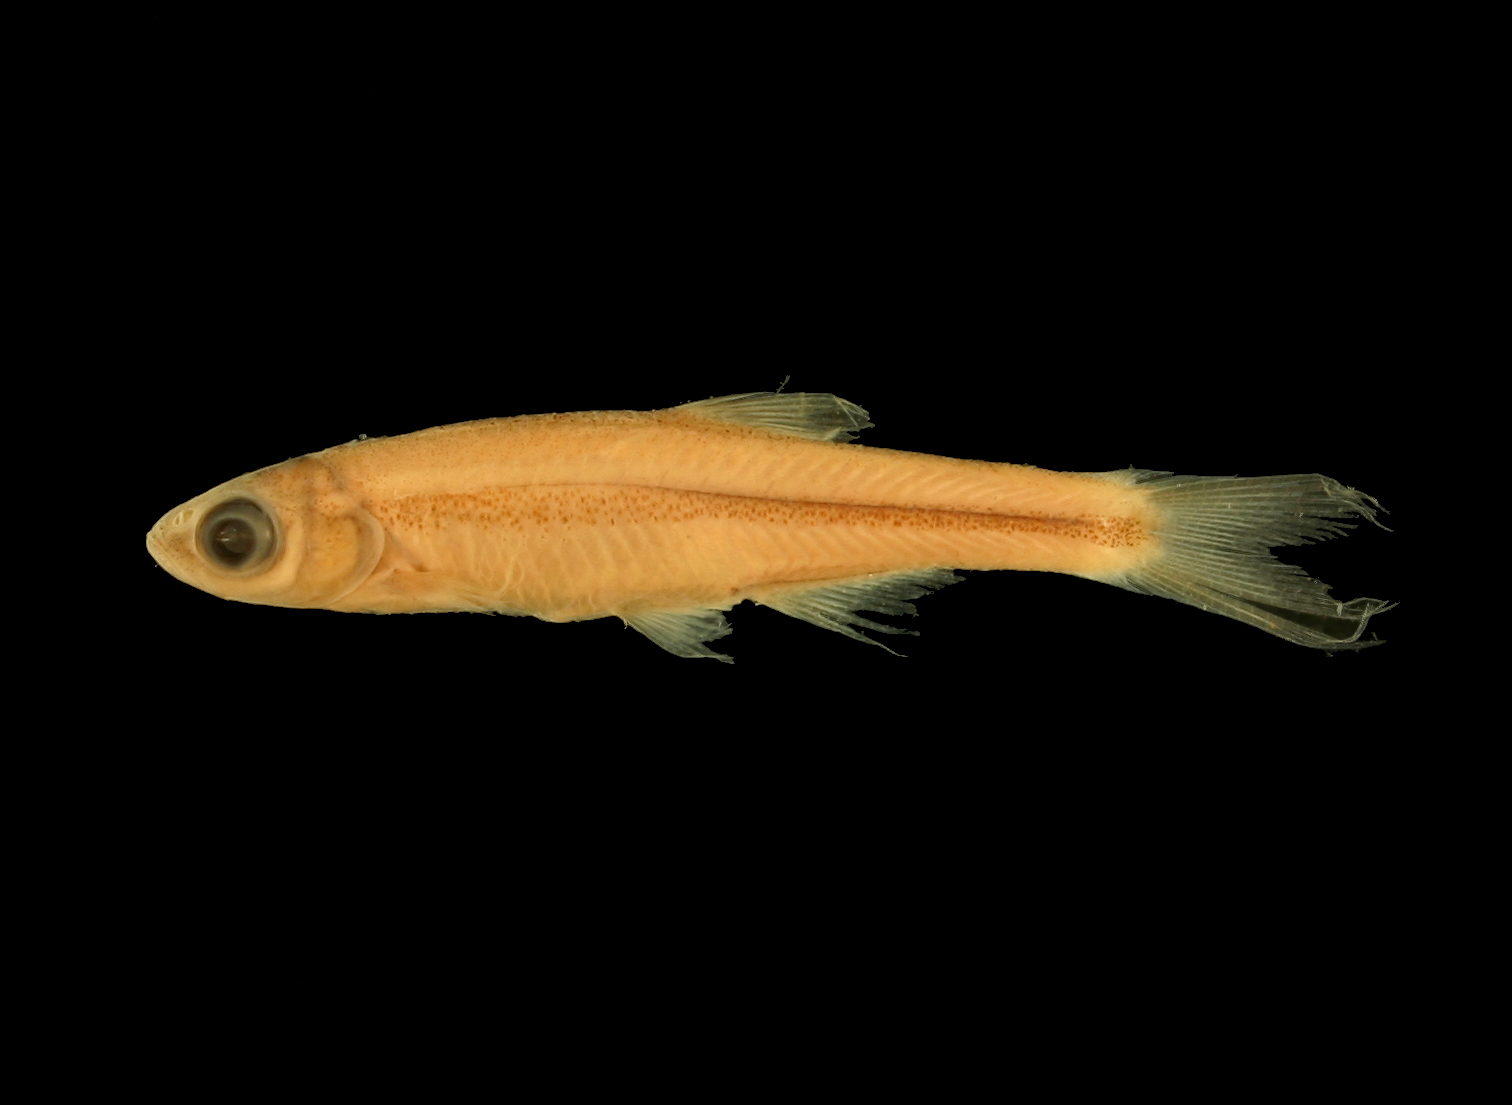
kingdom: Animalia
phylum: Chordata
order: Cypriniformes
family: Cyprinidae
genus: Notropis
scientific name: Notropis jemezanus
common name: Rio grande shiner
